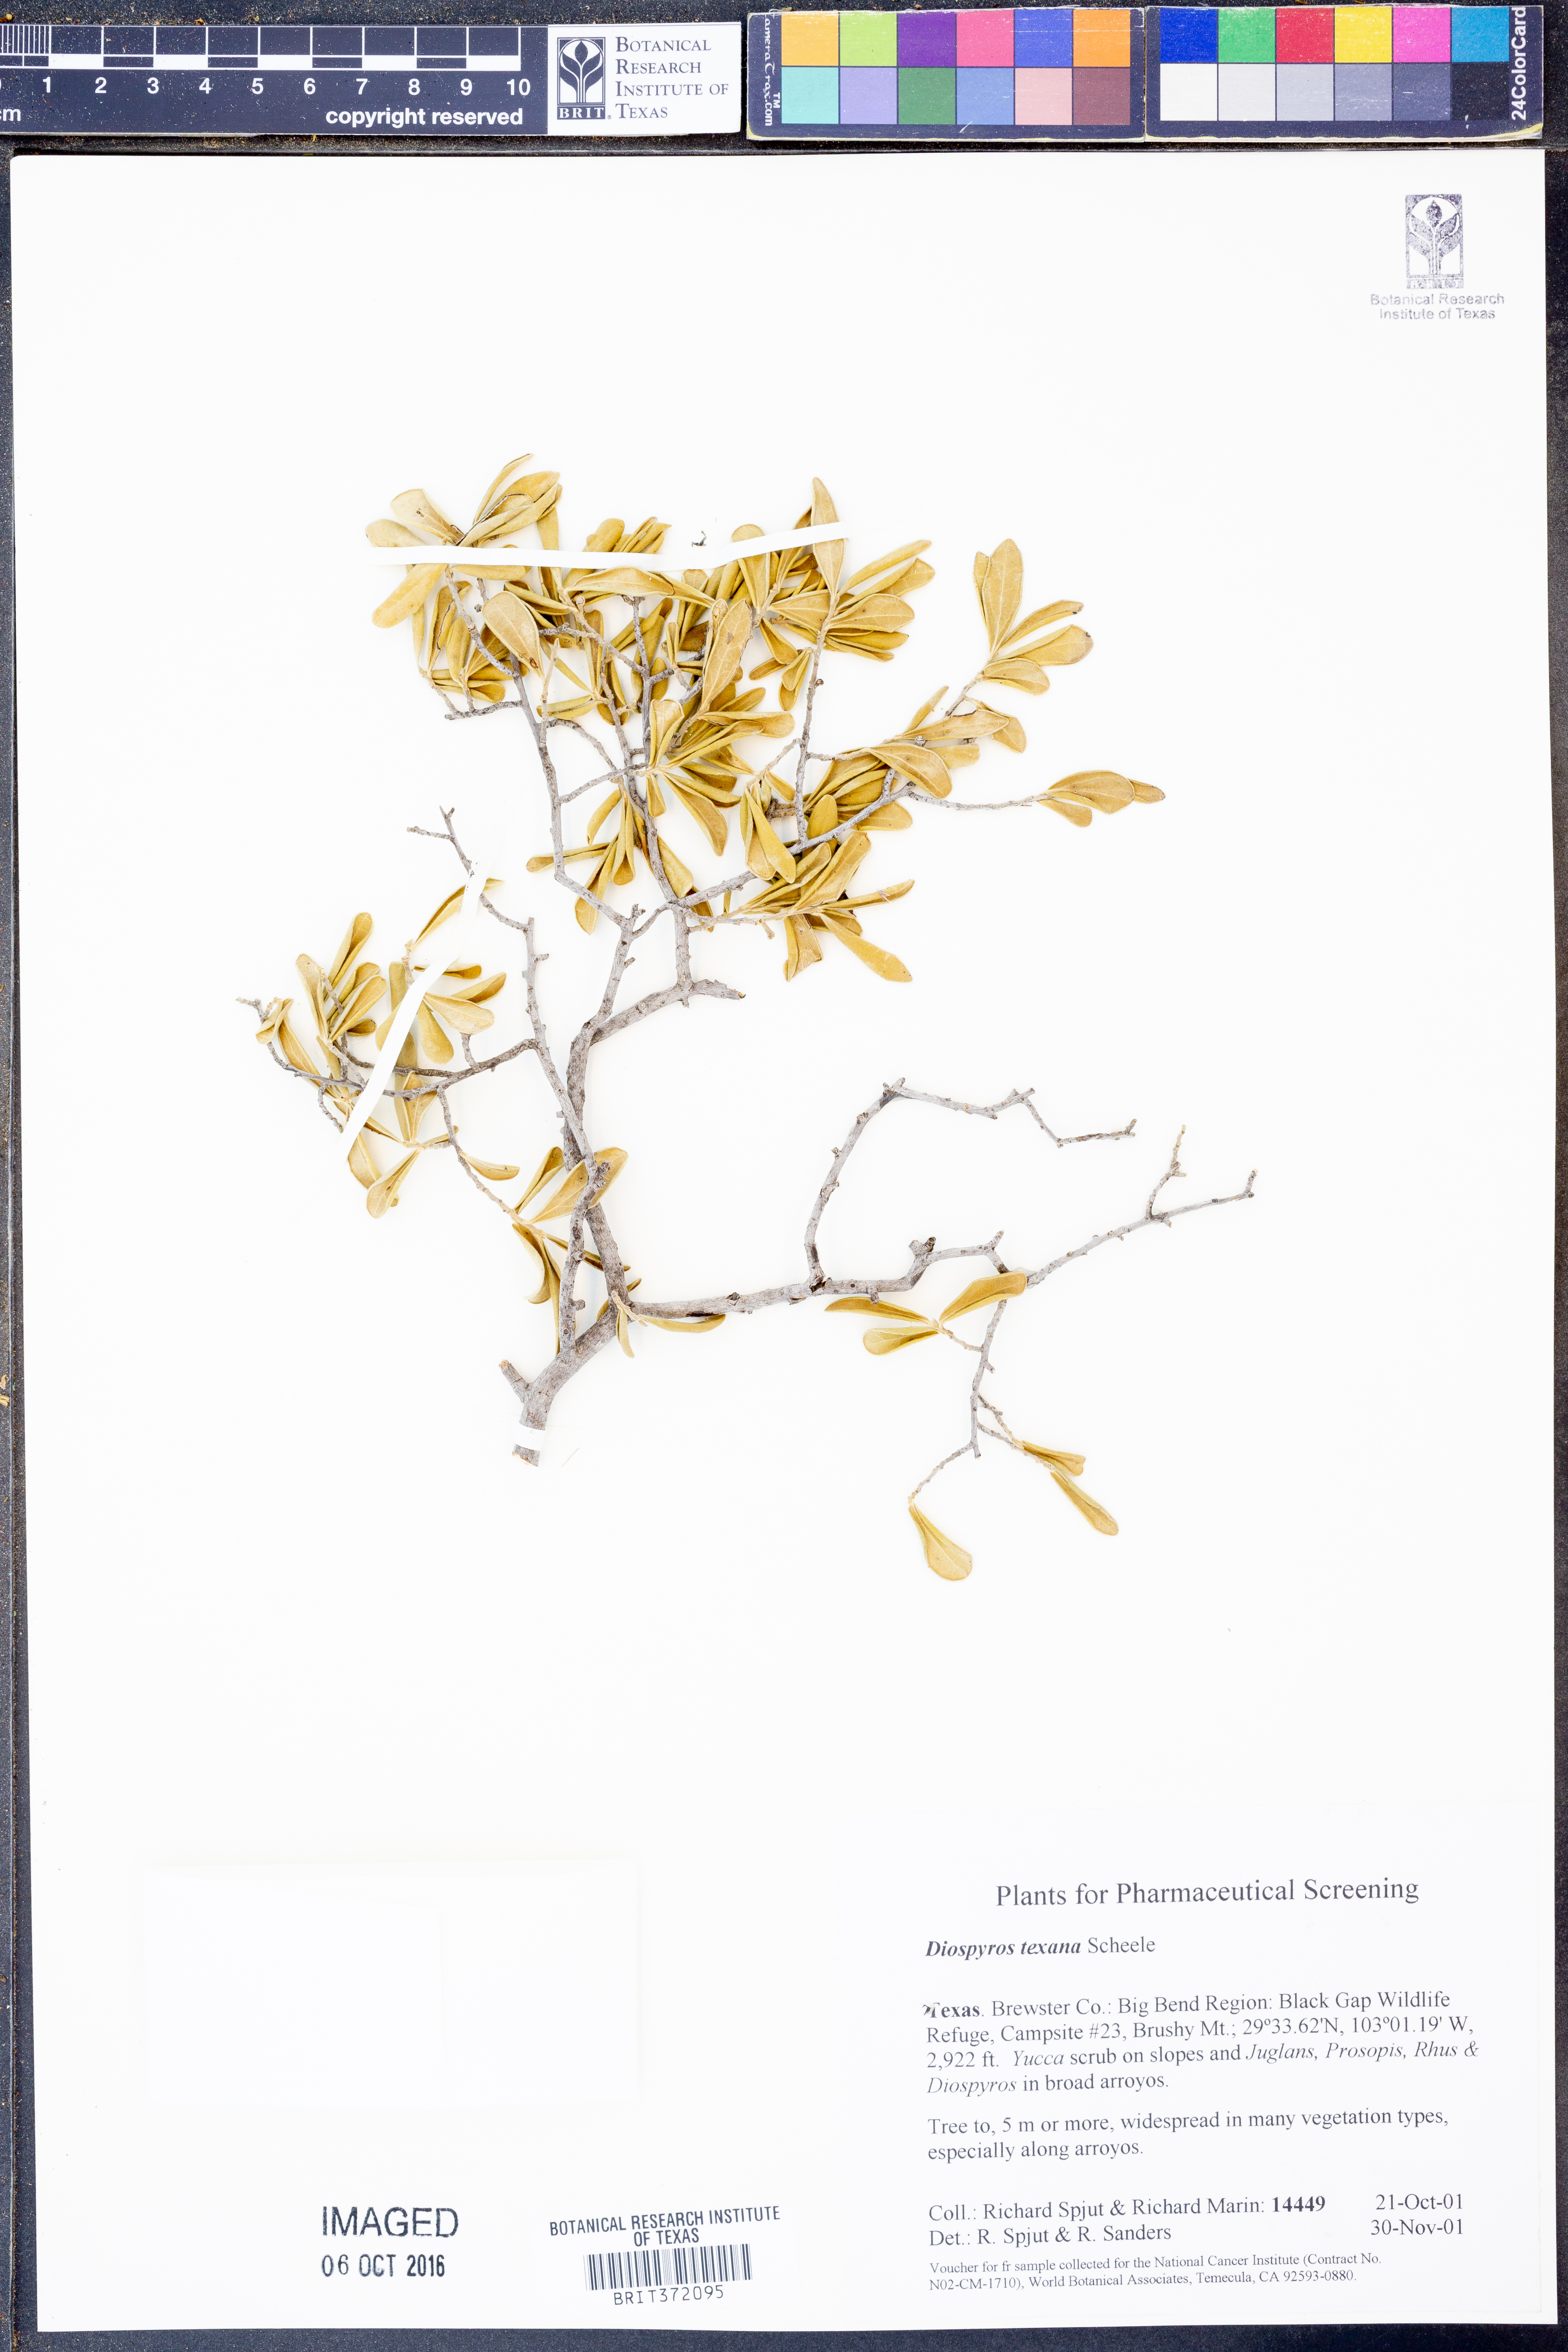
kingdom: Plantae
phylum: Tracheophyta
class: Magnoliopsida
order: Ericales
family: Ebenaceae
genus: Diospyros
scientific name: Diospyros texana
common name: Texas persimmon
